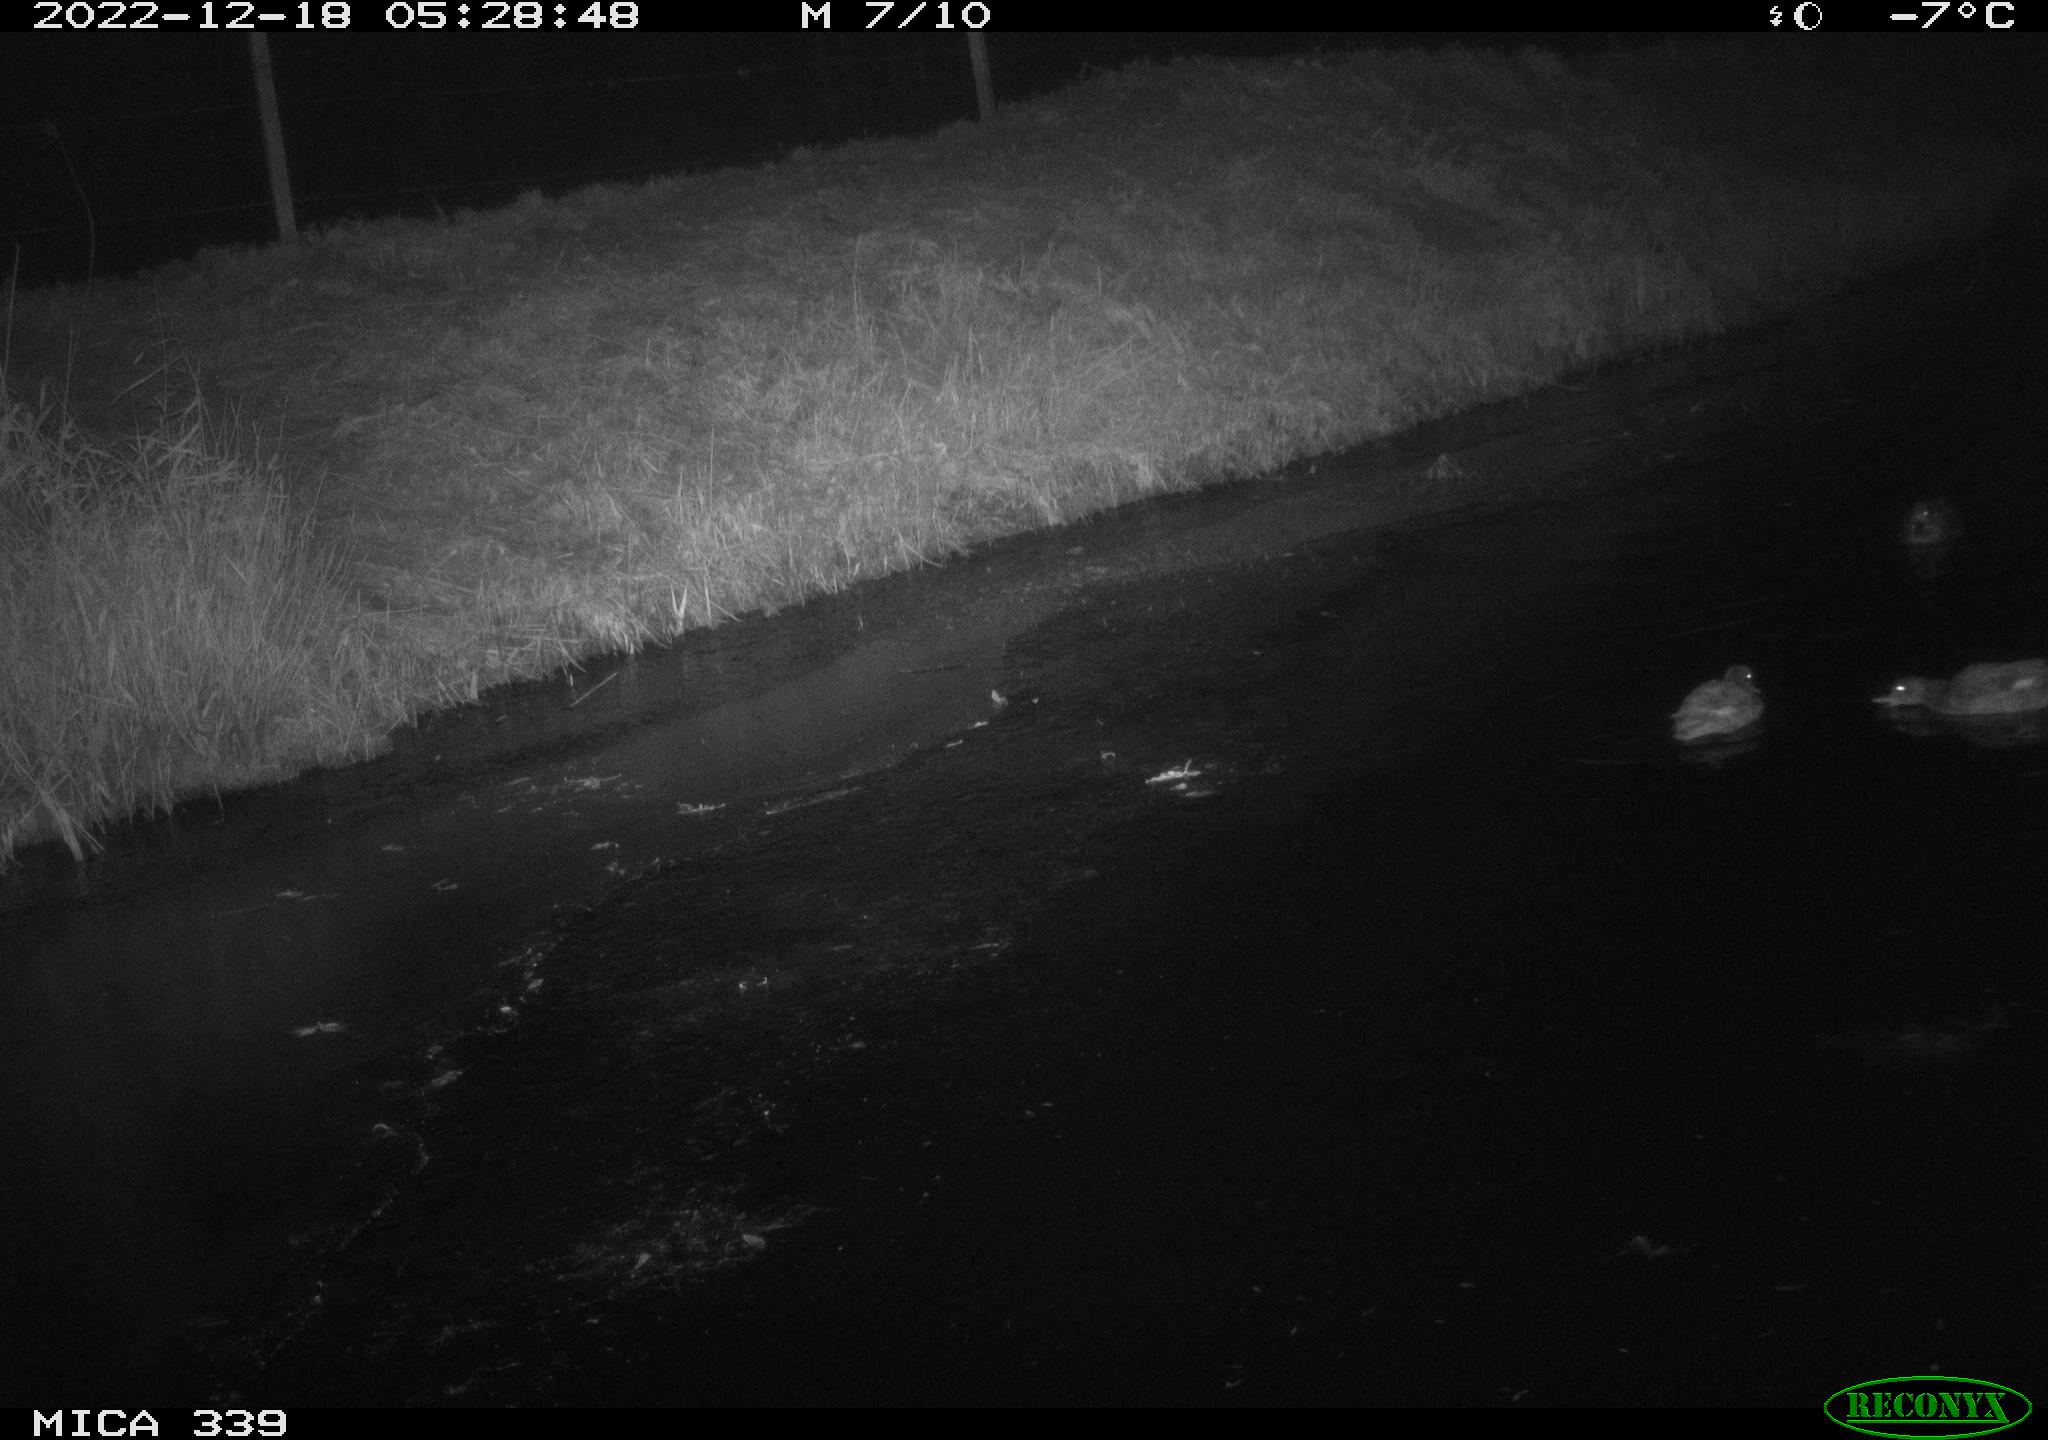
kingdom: Animalia
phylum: Chordata
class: Aves
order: Anseriformes
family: Anatidae
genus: Anas
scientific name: Anas
